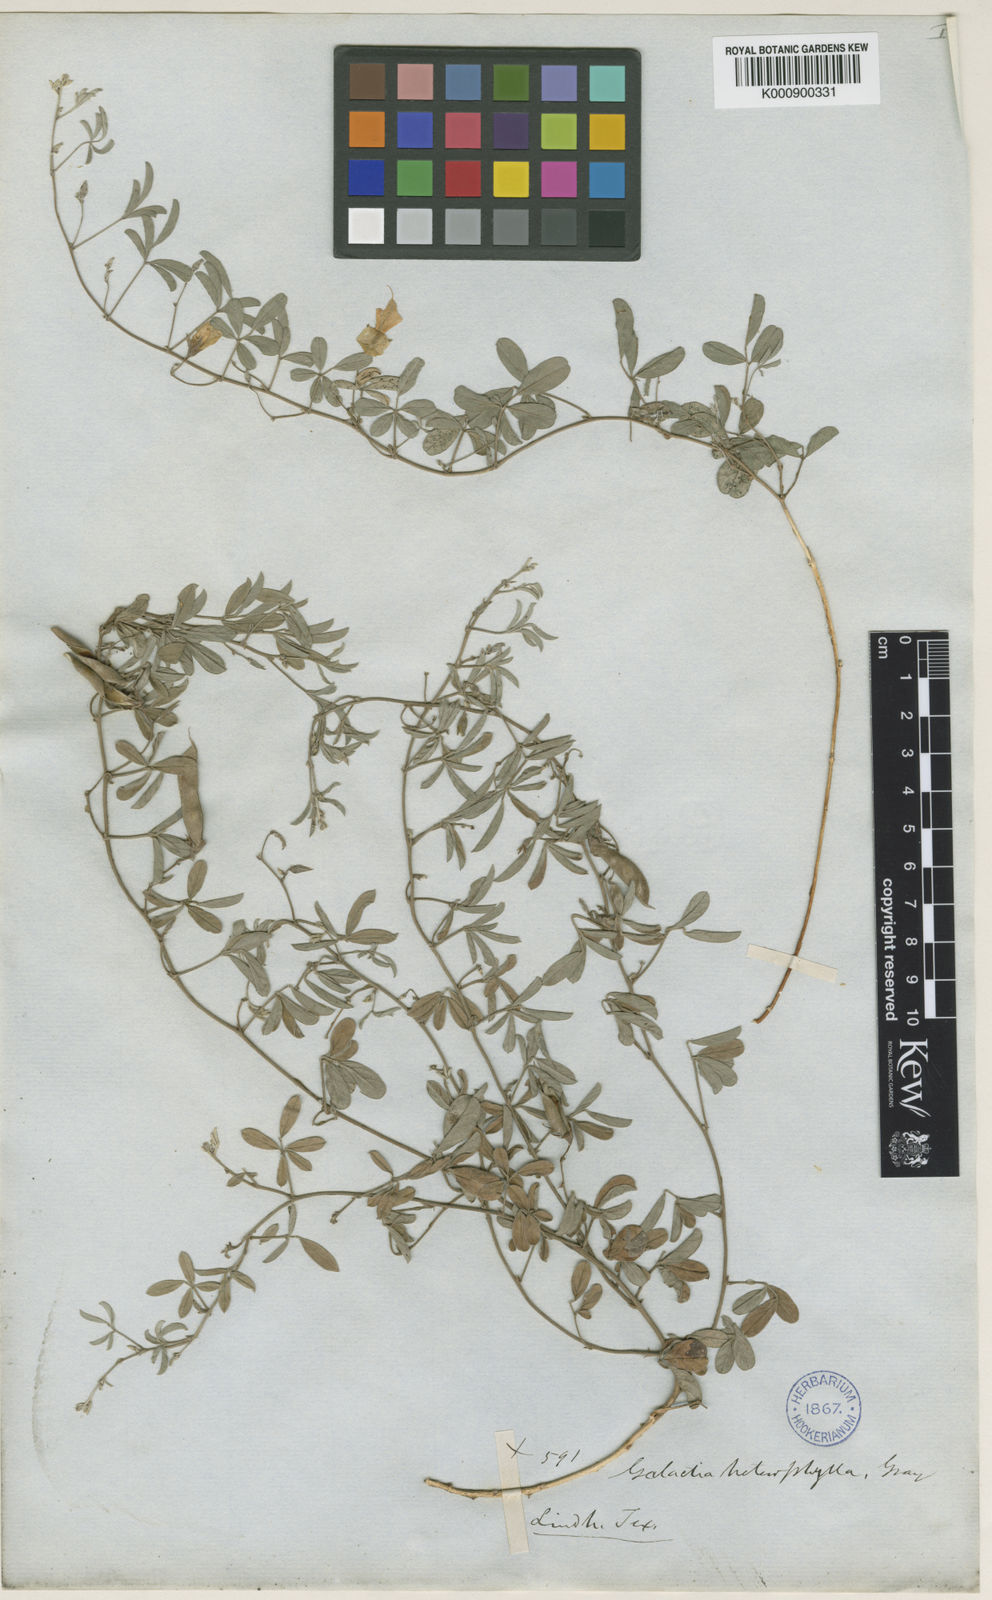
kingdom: Plantae
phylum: Tracheophyta
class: Magnoliopsida
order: Fabales
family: Fabaceae
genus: Galactia
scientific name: Galactia heterophylla
